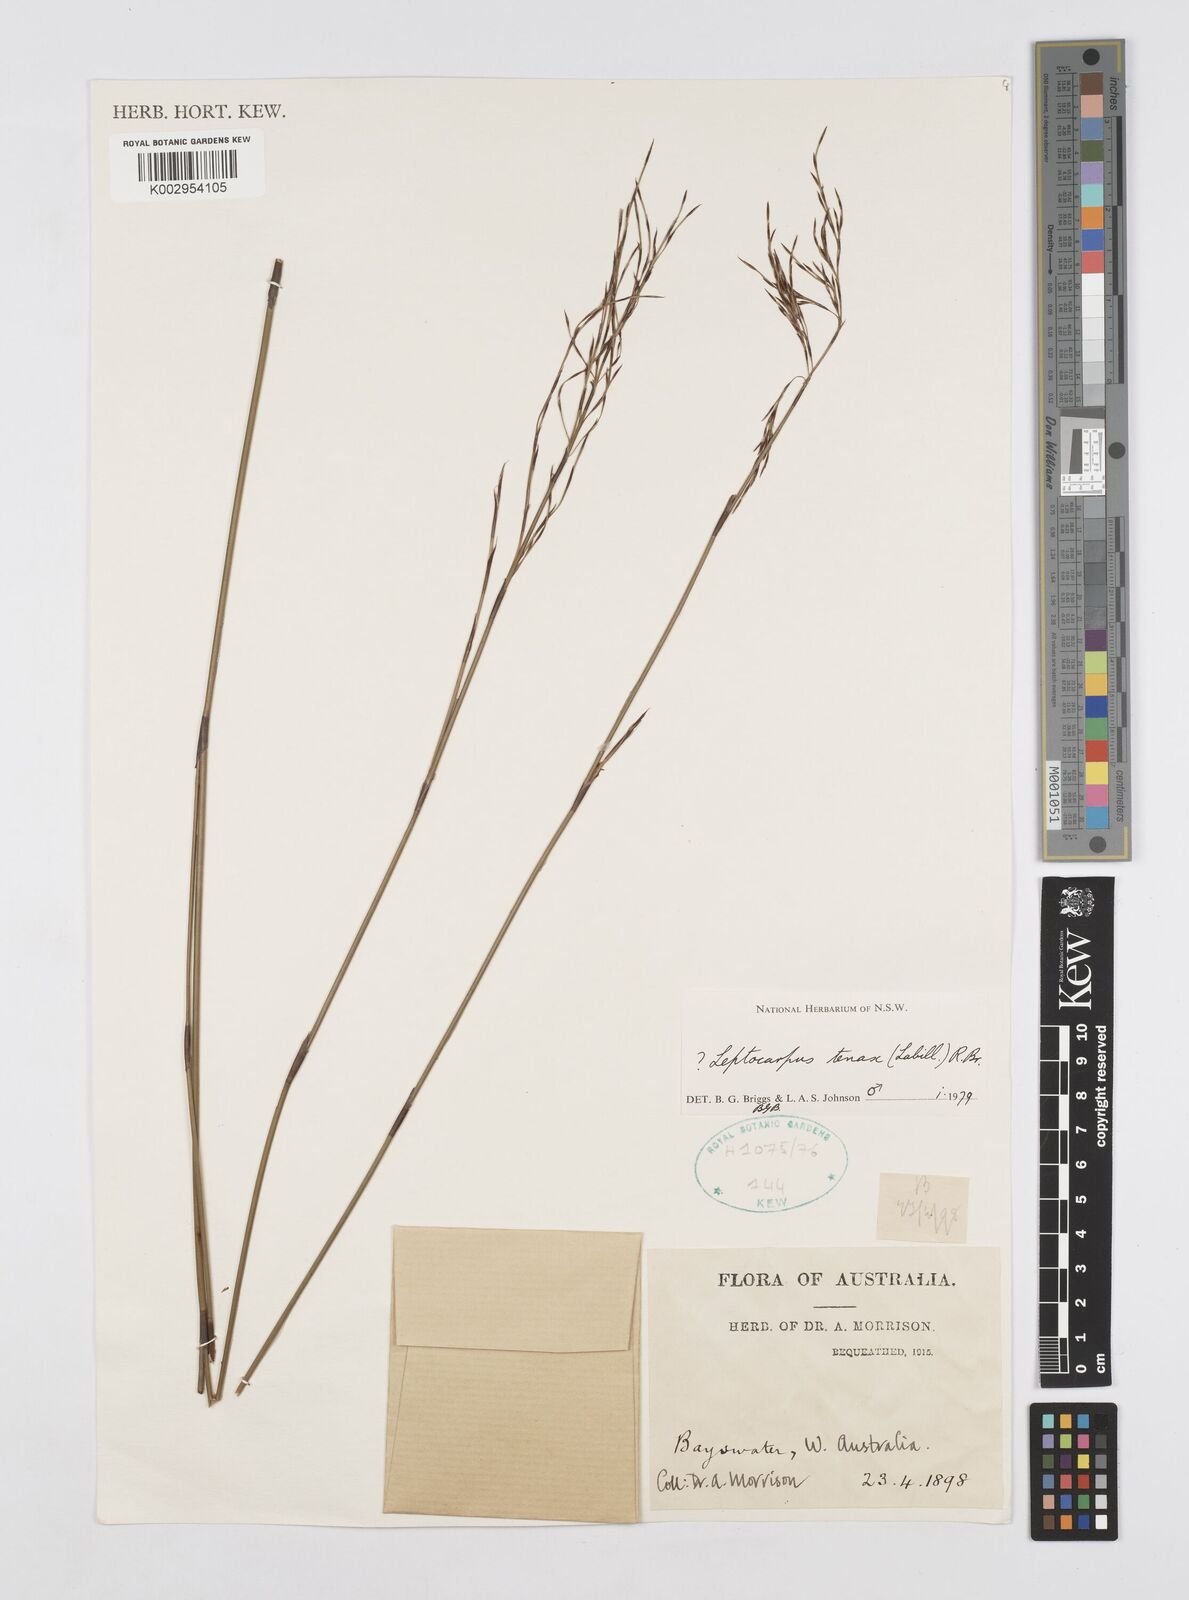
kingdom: Plantae
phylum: Tracheophyta
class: Liliopsida
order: Poales
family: Restionaceae
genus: Leptocarpus
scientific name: Leptocarpus tenax
